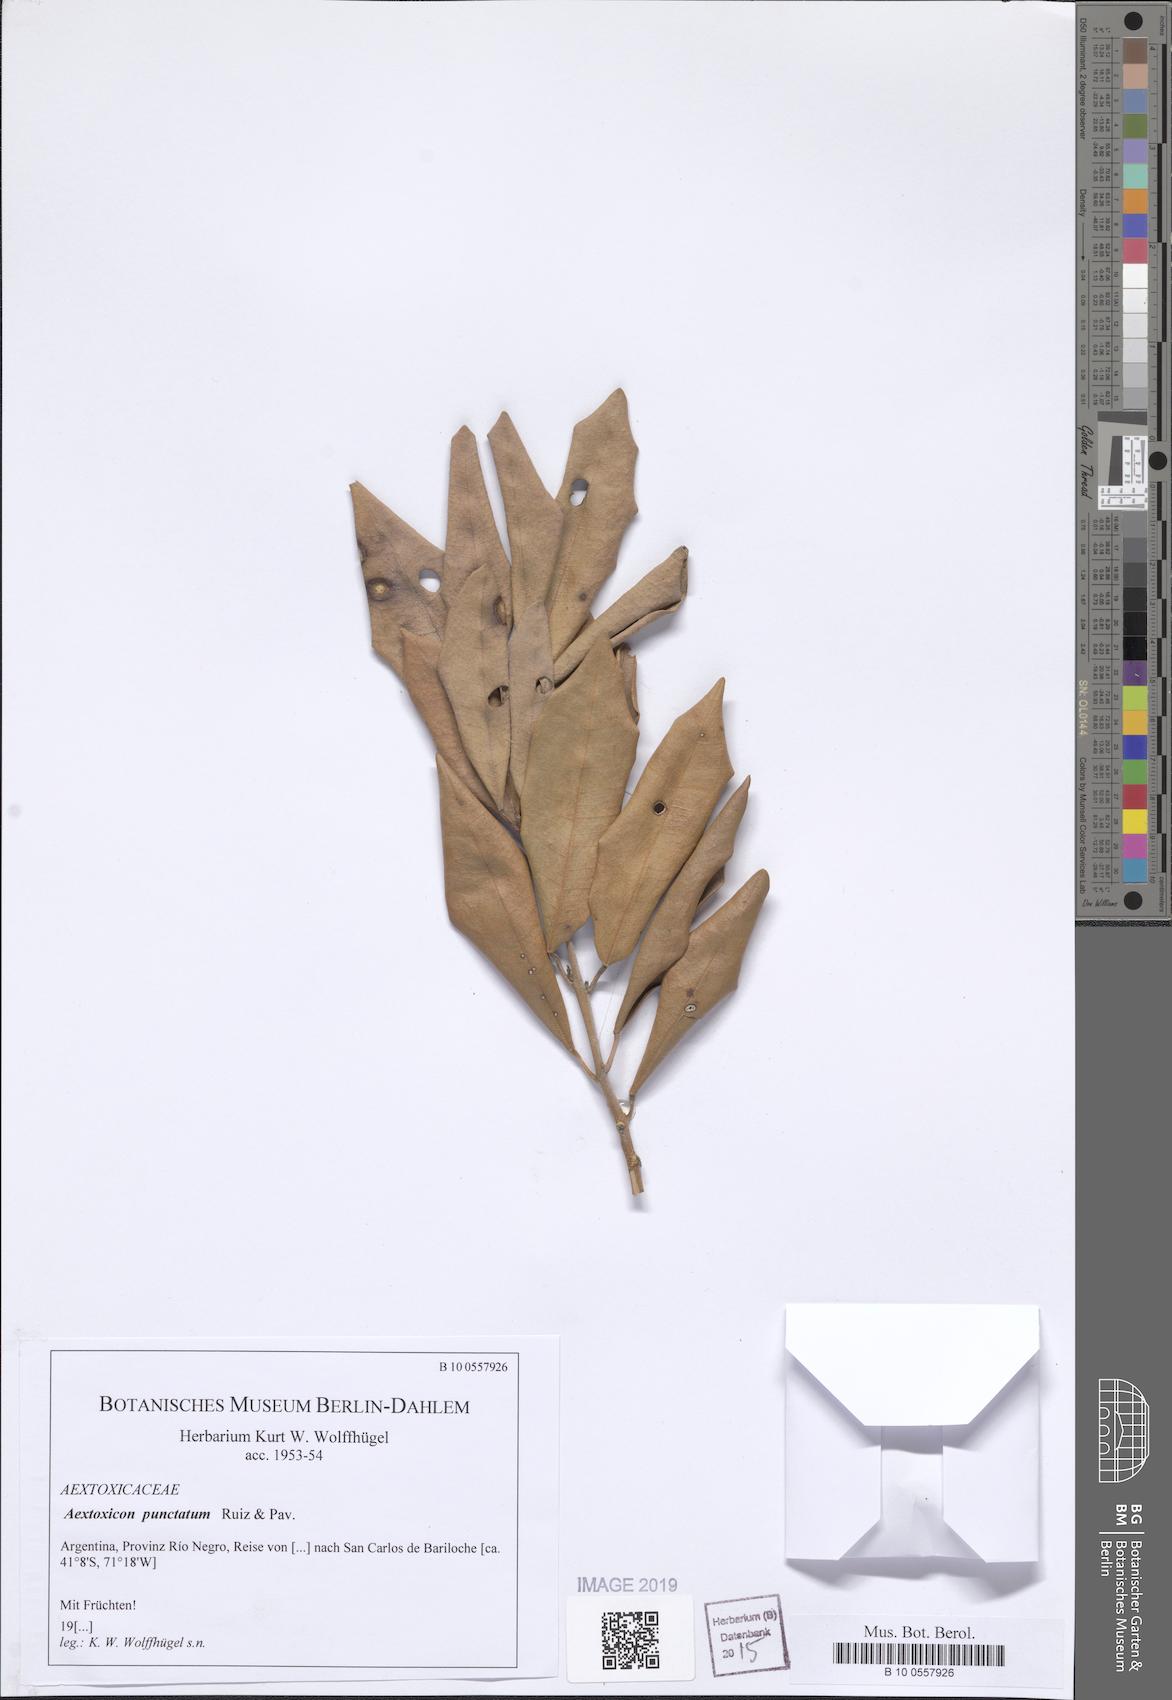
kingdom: Plantae
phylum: Tracheophyta
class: Magnoliopsida
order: Berberidopsidales
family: Aextoxicaceae
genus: Aextoxicon
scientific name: Aextoxicon punctatum
